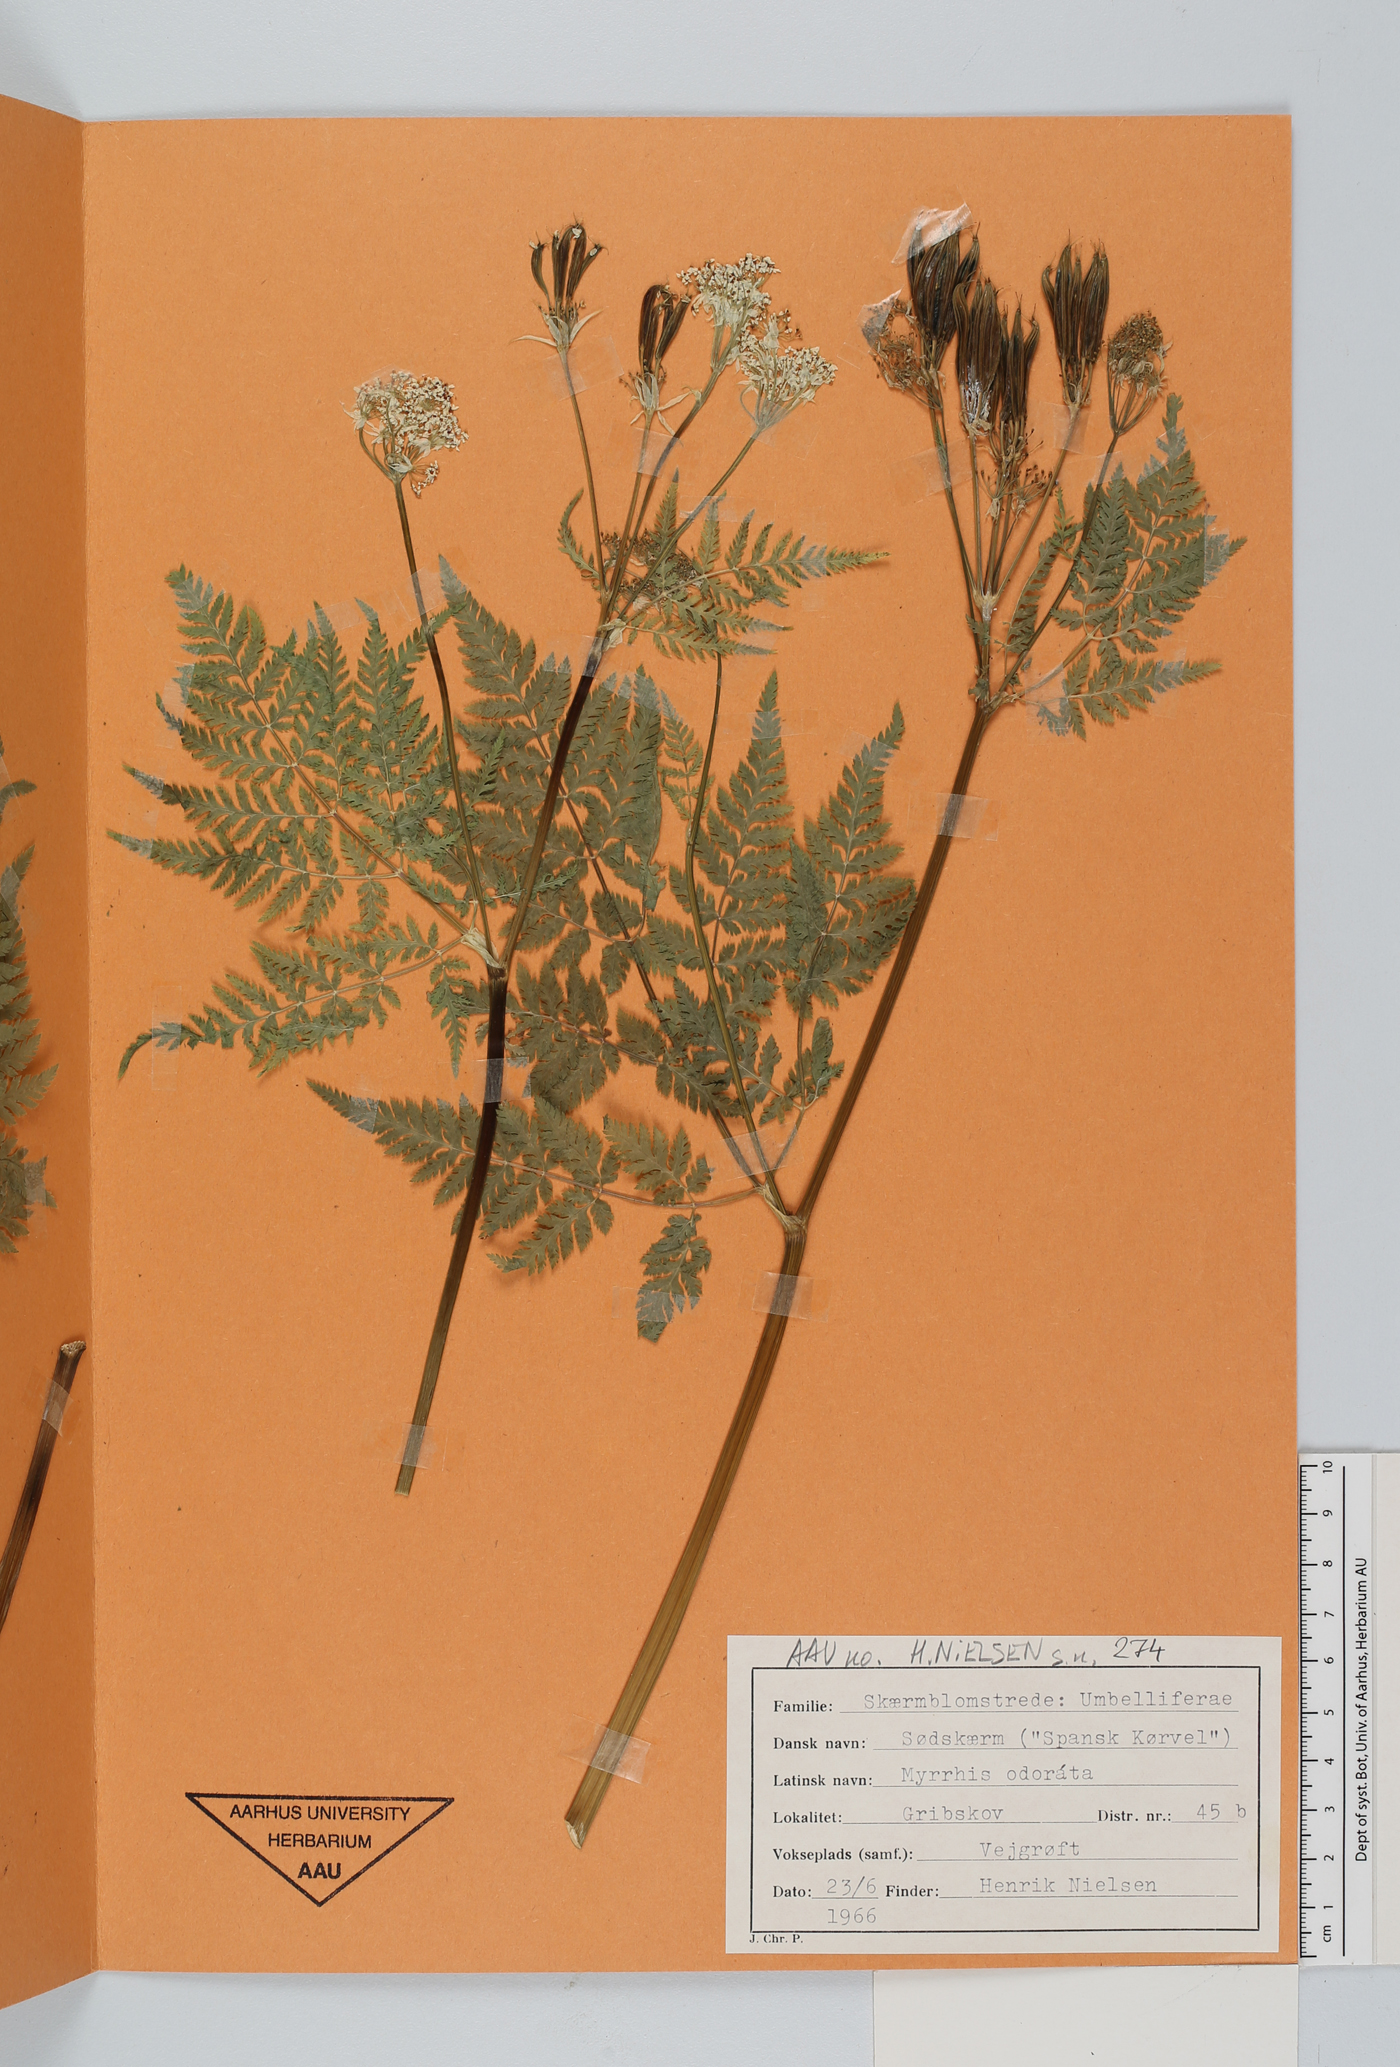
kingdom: Plantae
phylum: Tracheophyta
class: Magnoliopsida
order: Apiales
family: Apiaceae
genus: Myrrhis
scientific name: Myrrhis odorata
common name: Sweet cicely
